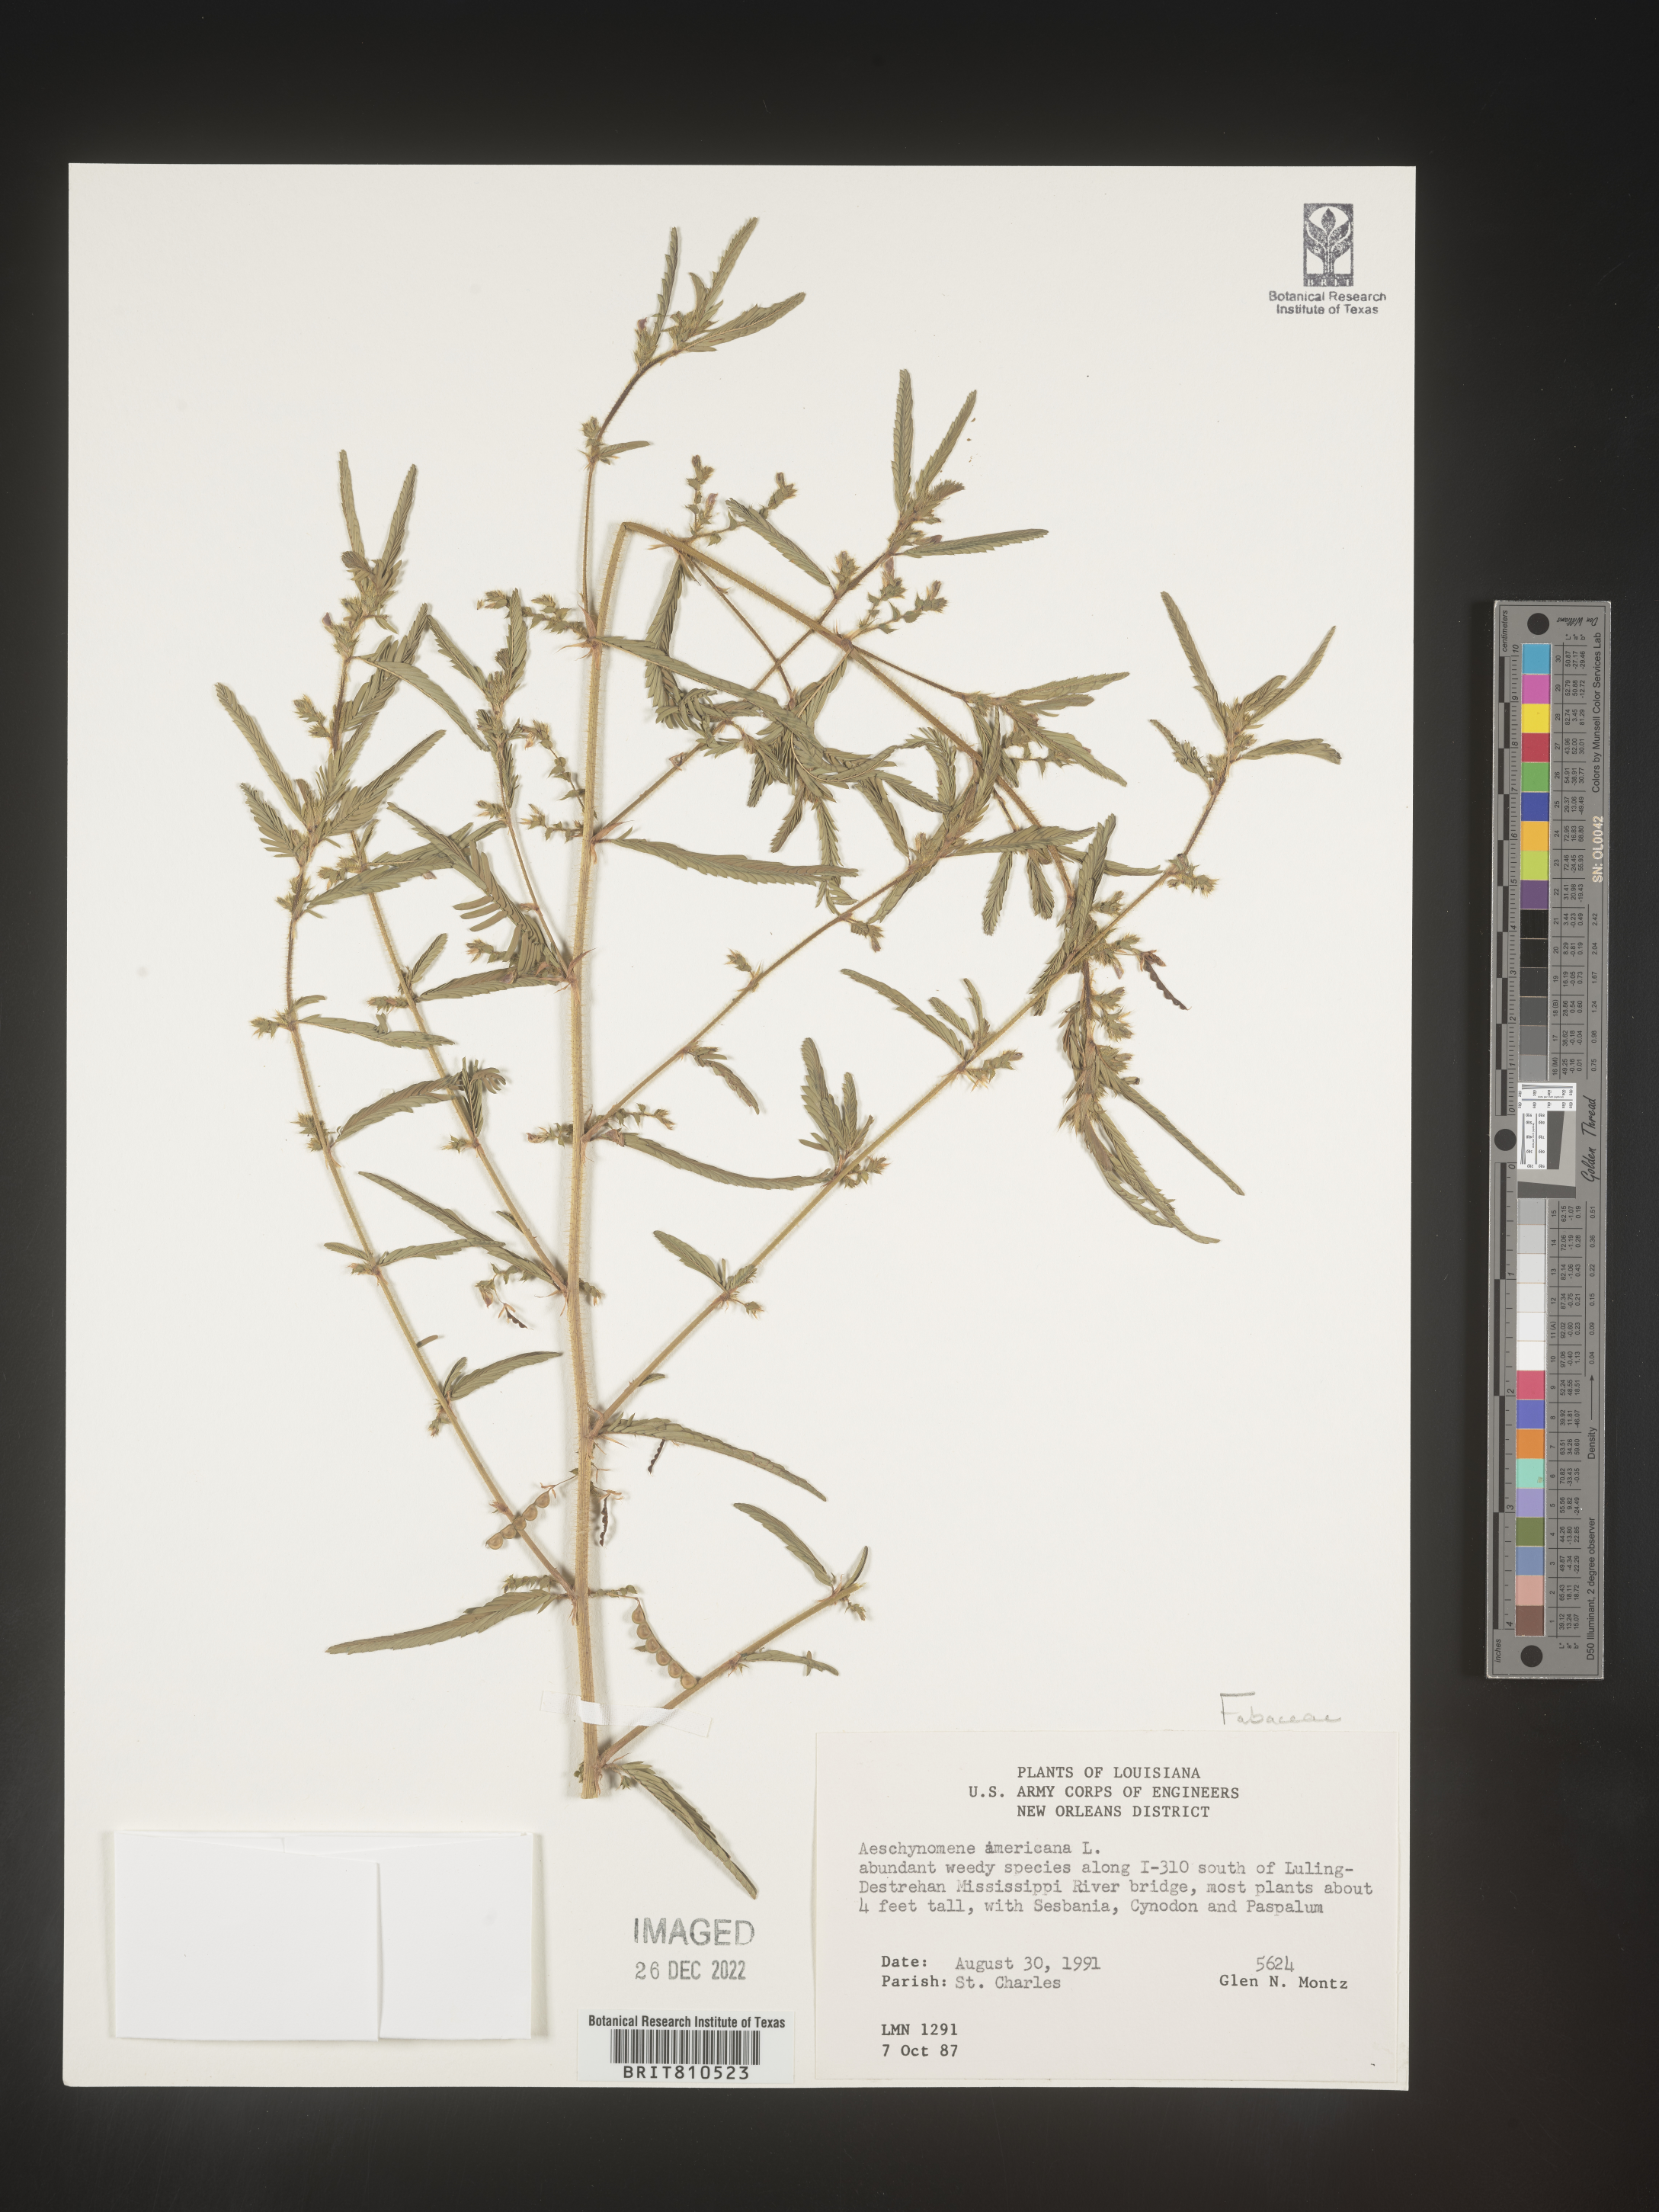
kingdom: Plantae
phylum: Tracheophyta
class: Magnoliopsida
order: Fabales
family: Fabaceae
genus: Aeschynomene
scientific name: Aeschynomene americana
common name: Joint-vetch
